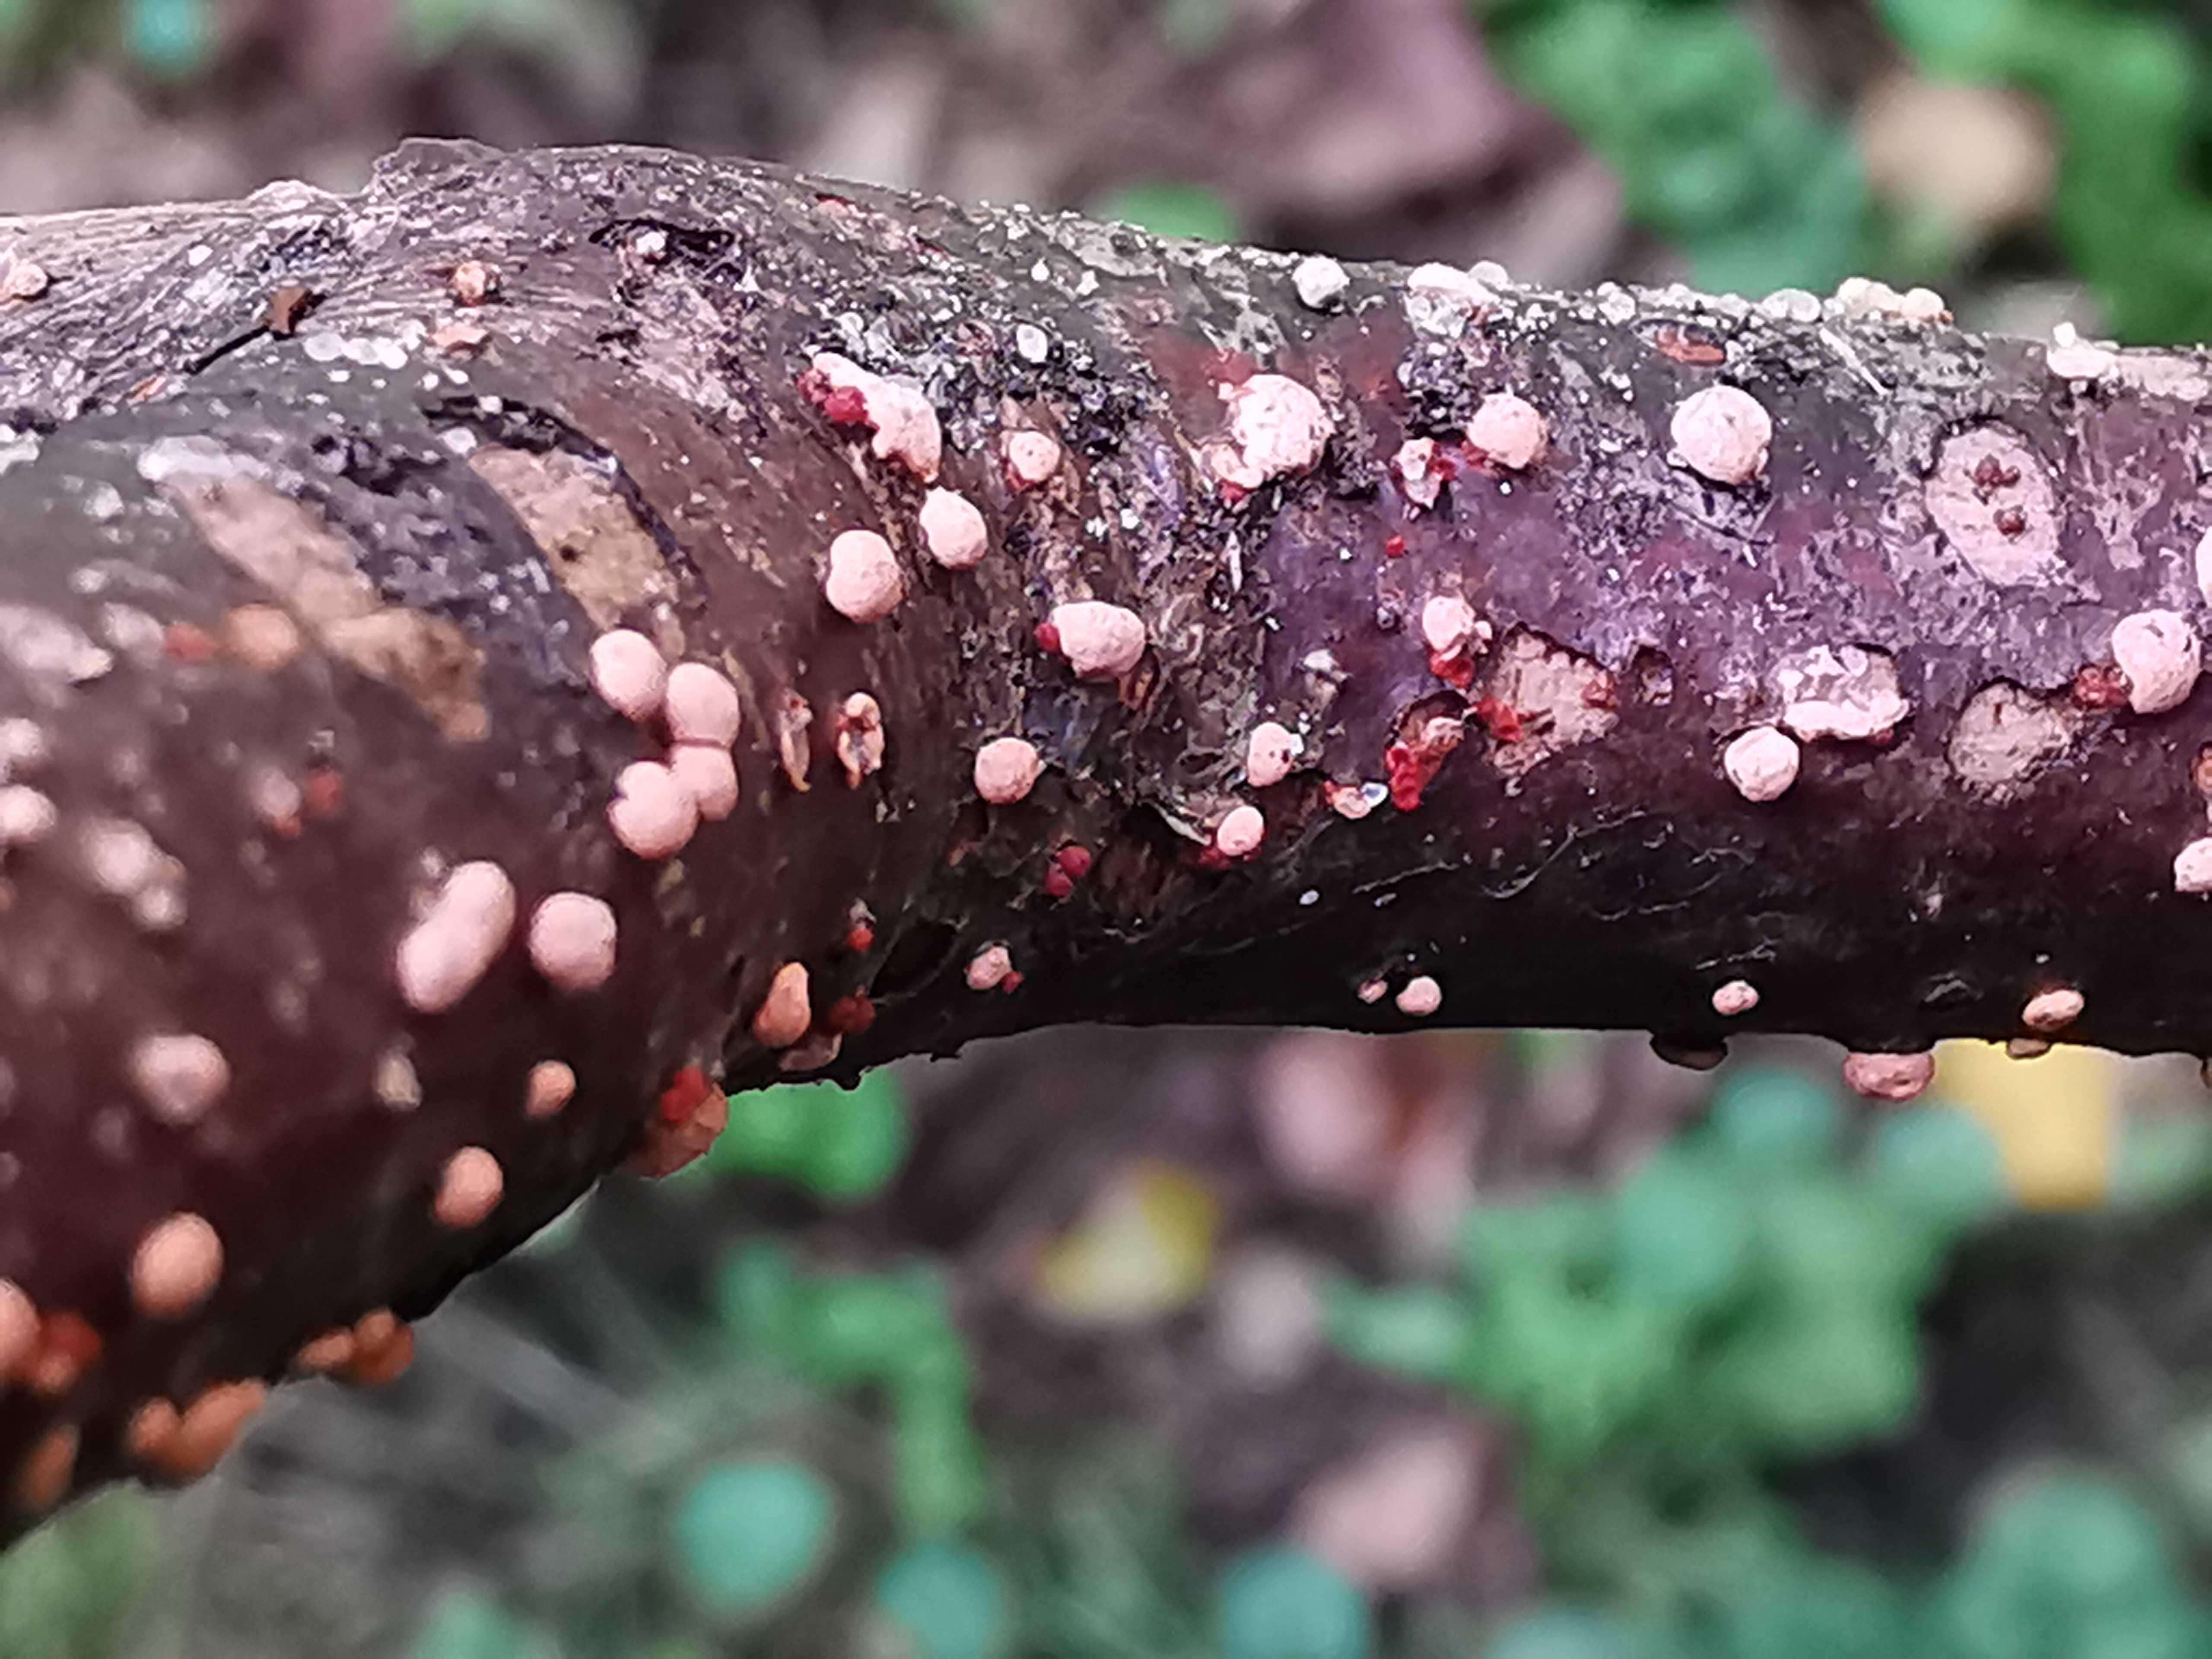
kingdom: Fungi
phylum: Ascomycota
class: Sordariomycetes
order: Hypocreales
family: Nectriaceae
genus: Nectria
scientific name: Nectria cinnabarina
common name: almindelig cinnobersvamp
